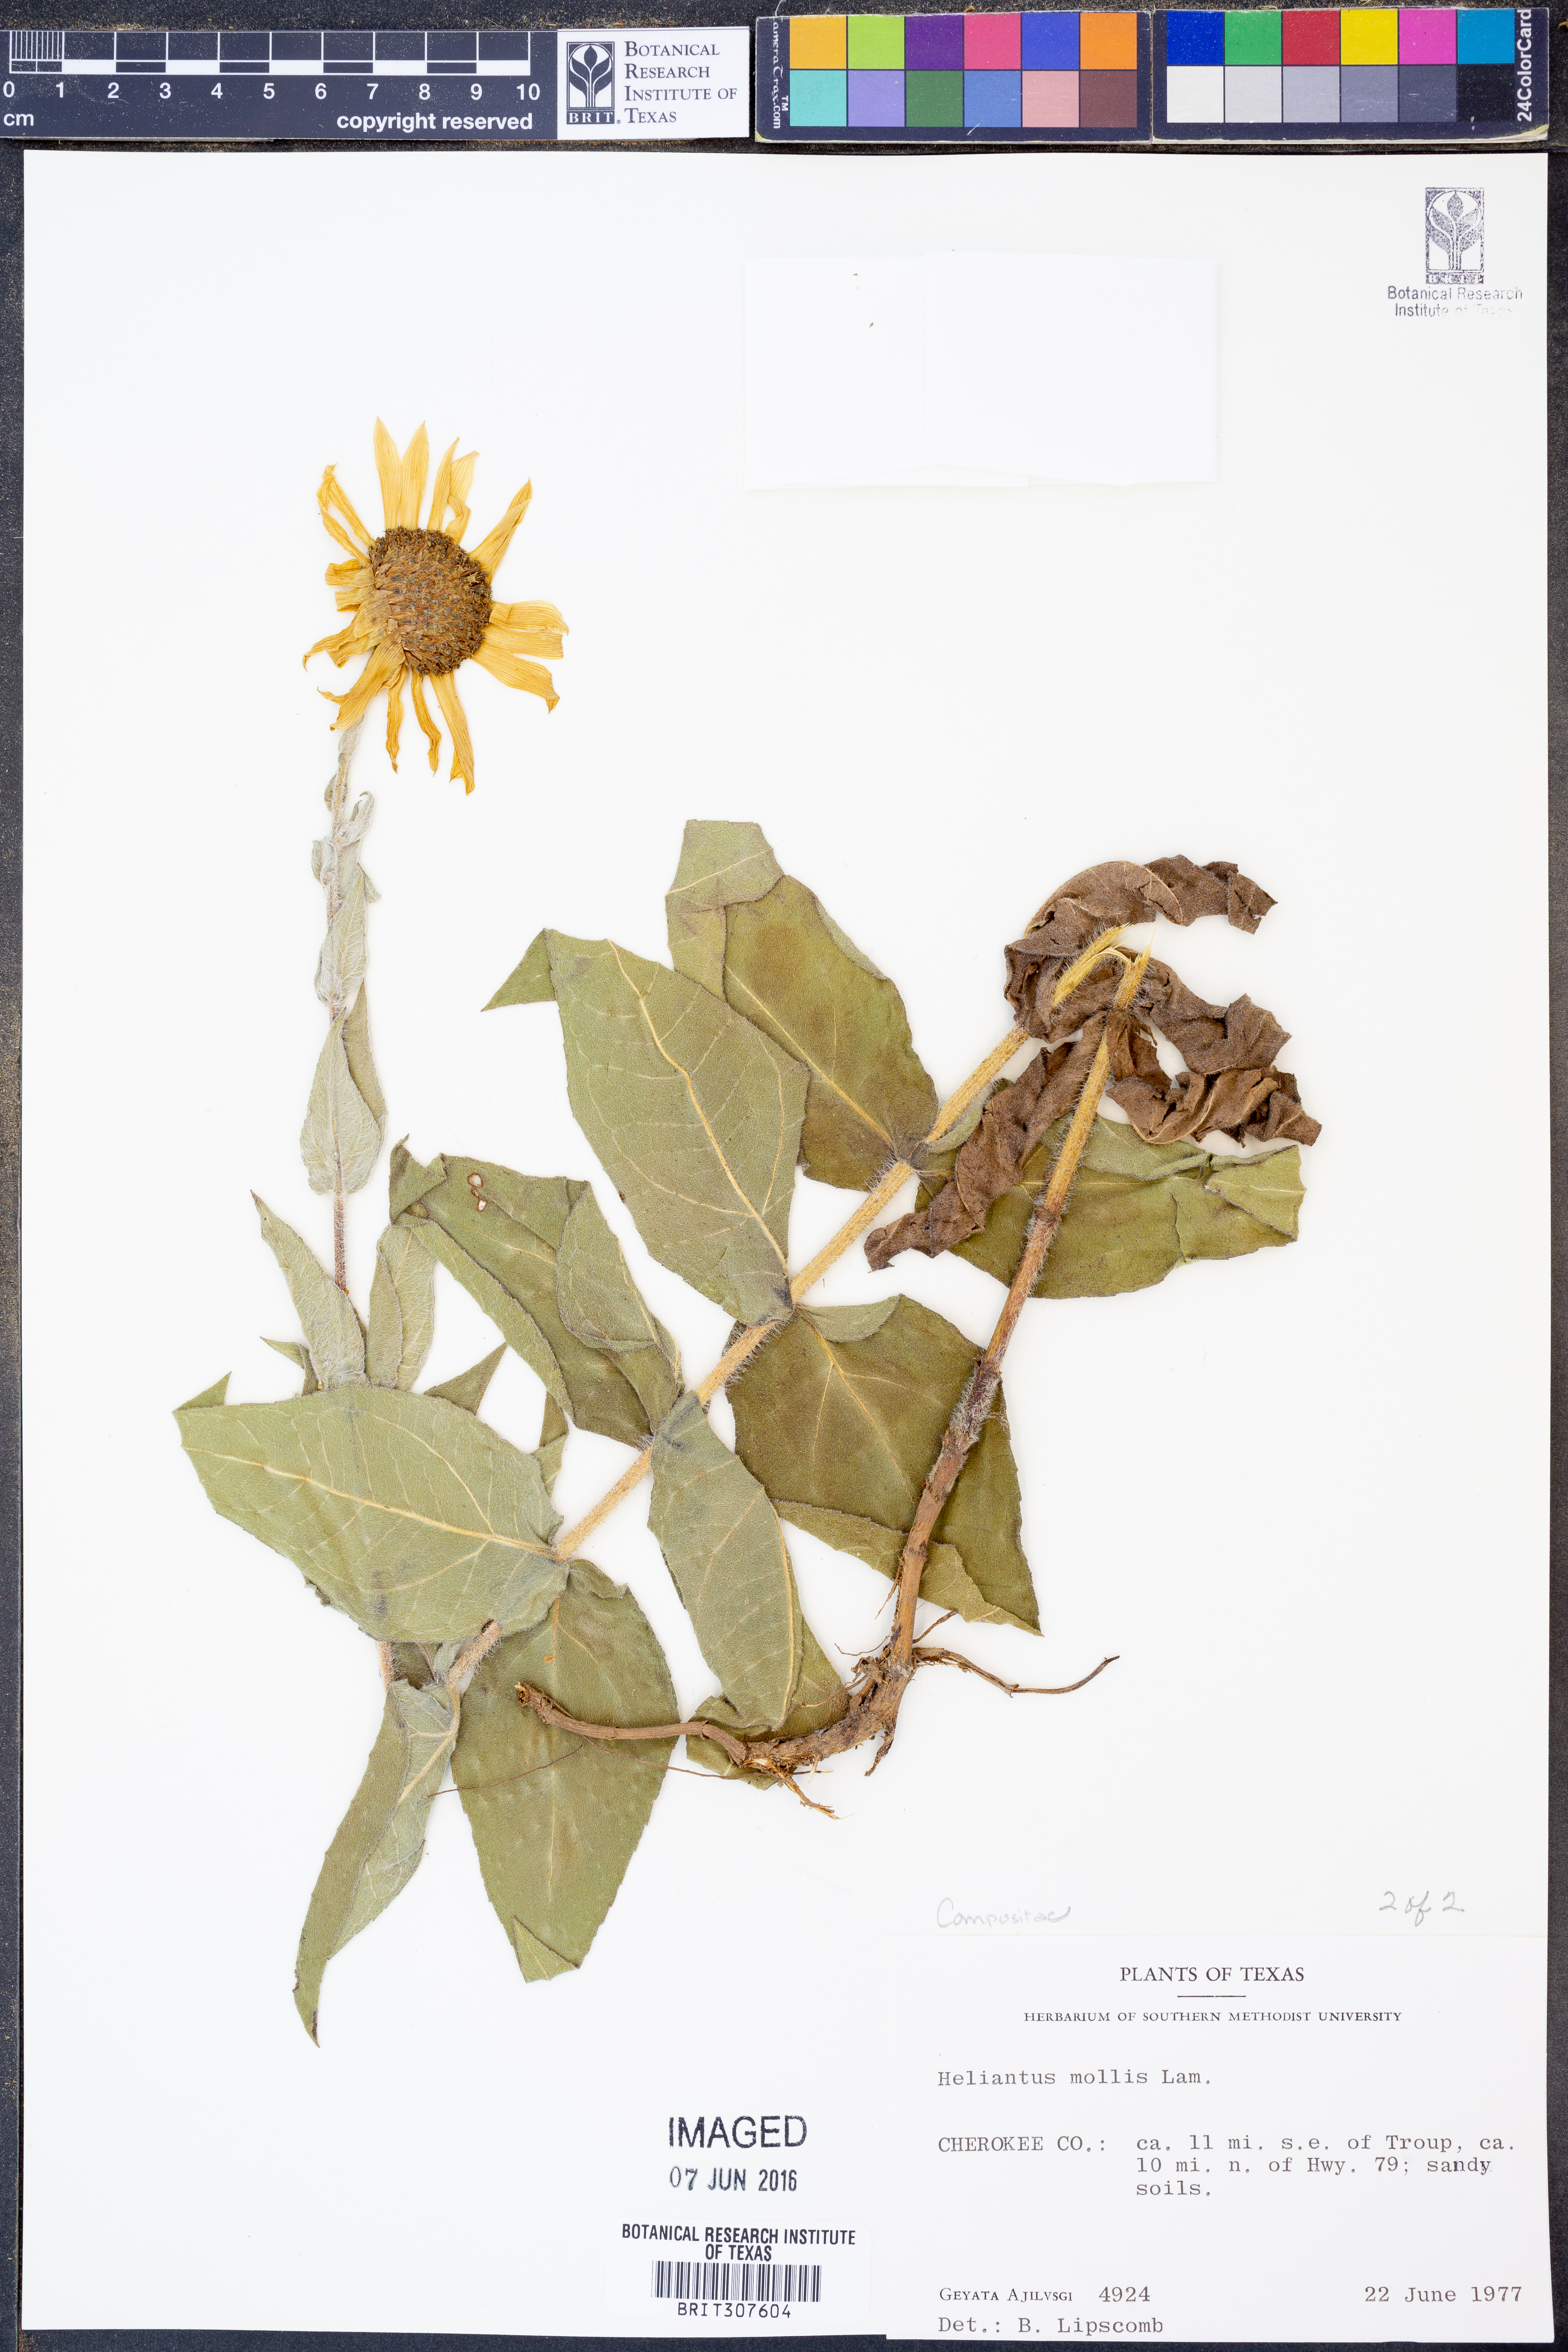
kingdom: Plantae
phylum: Tracheophyta
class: Magnoliopsida
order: Asterales
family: Asteraceae
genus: Helianthus
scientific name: Helianthus mollis
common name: Ashy sunflower
